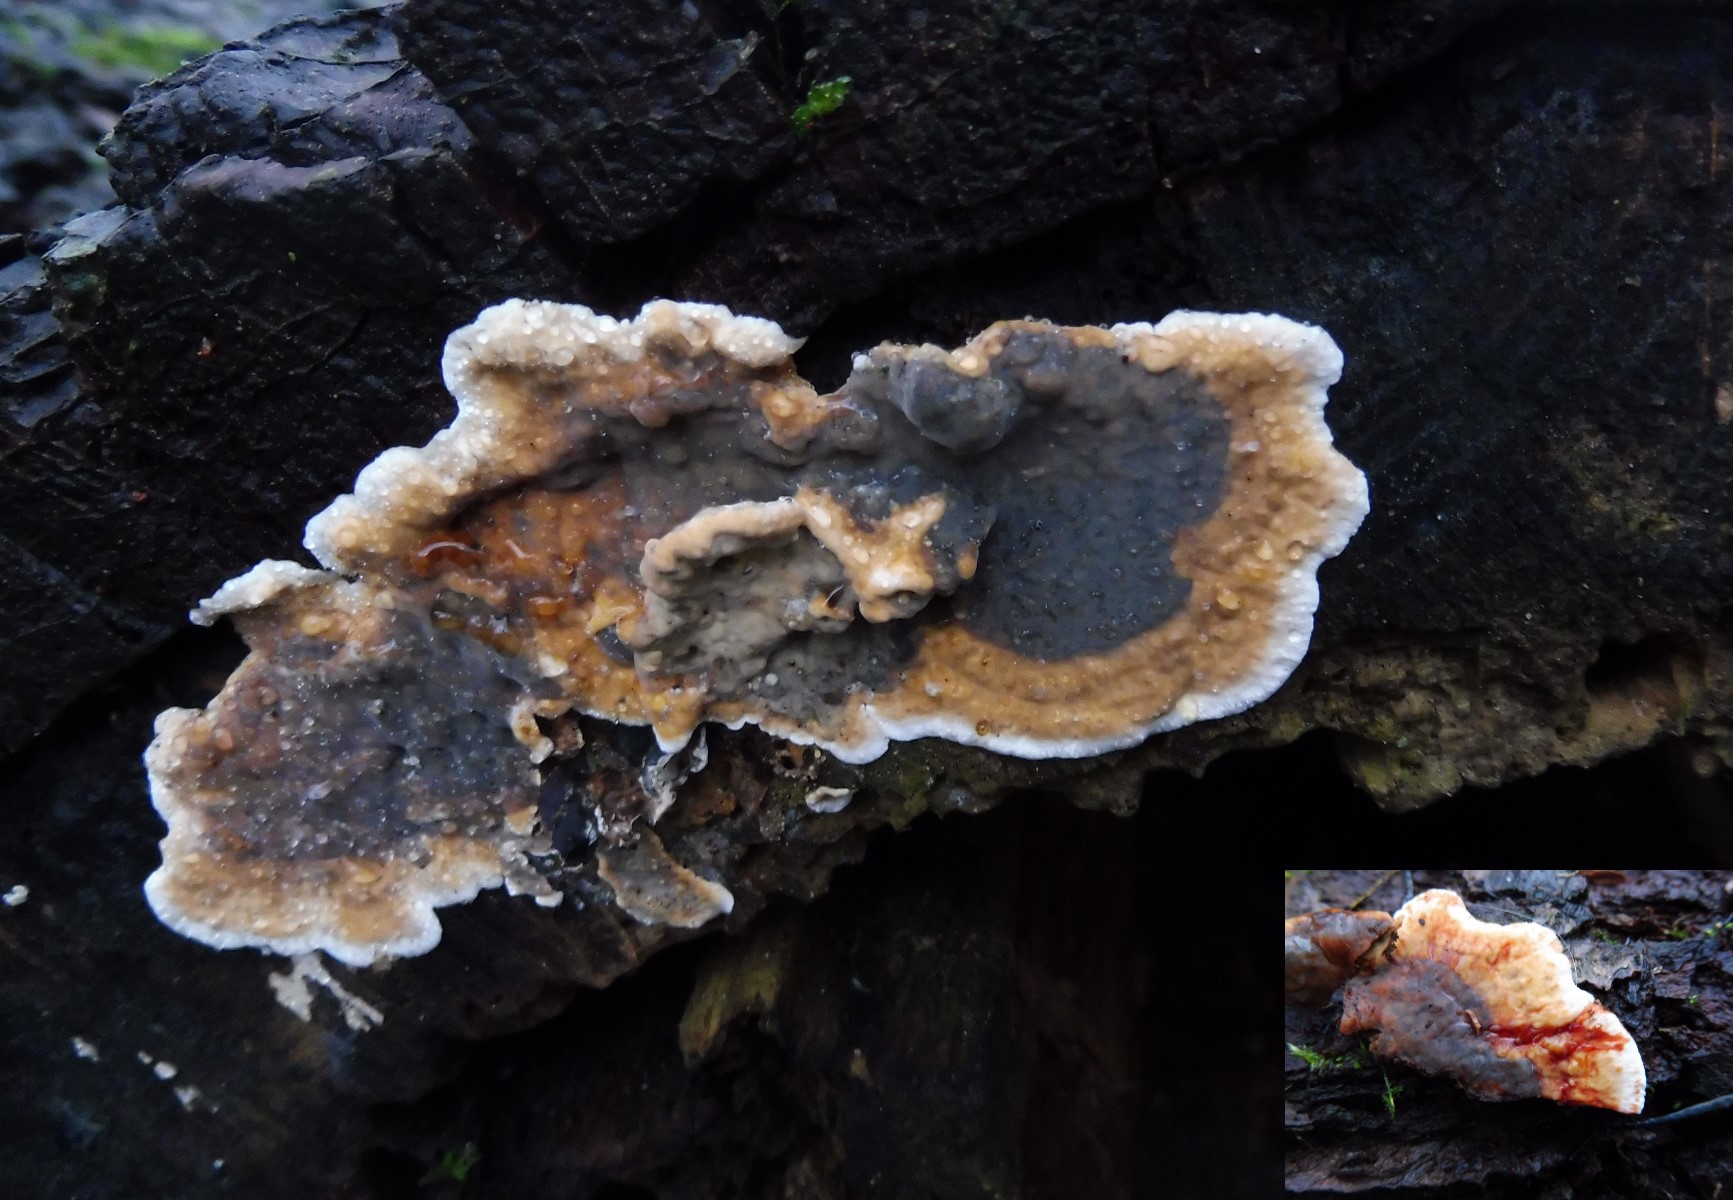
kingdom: Fungi
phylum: Basidiomycota
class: Agaricomycetes
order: Russulales
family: Stereaceae
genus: Stereum
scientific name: Stereum gausapatum
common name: tynd lædersvamp
